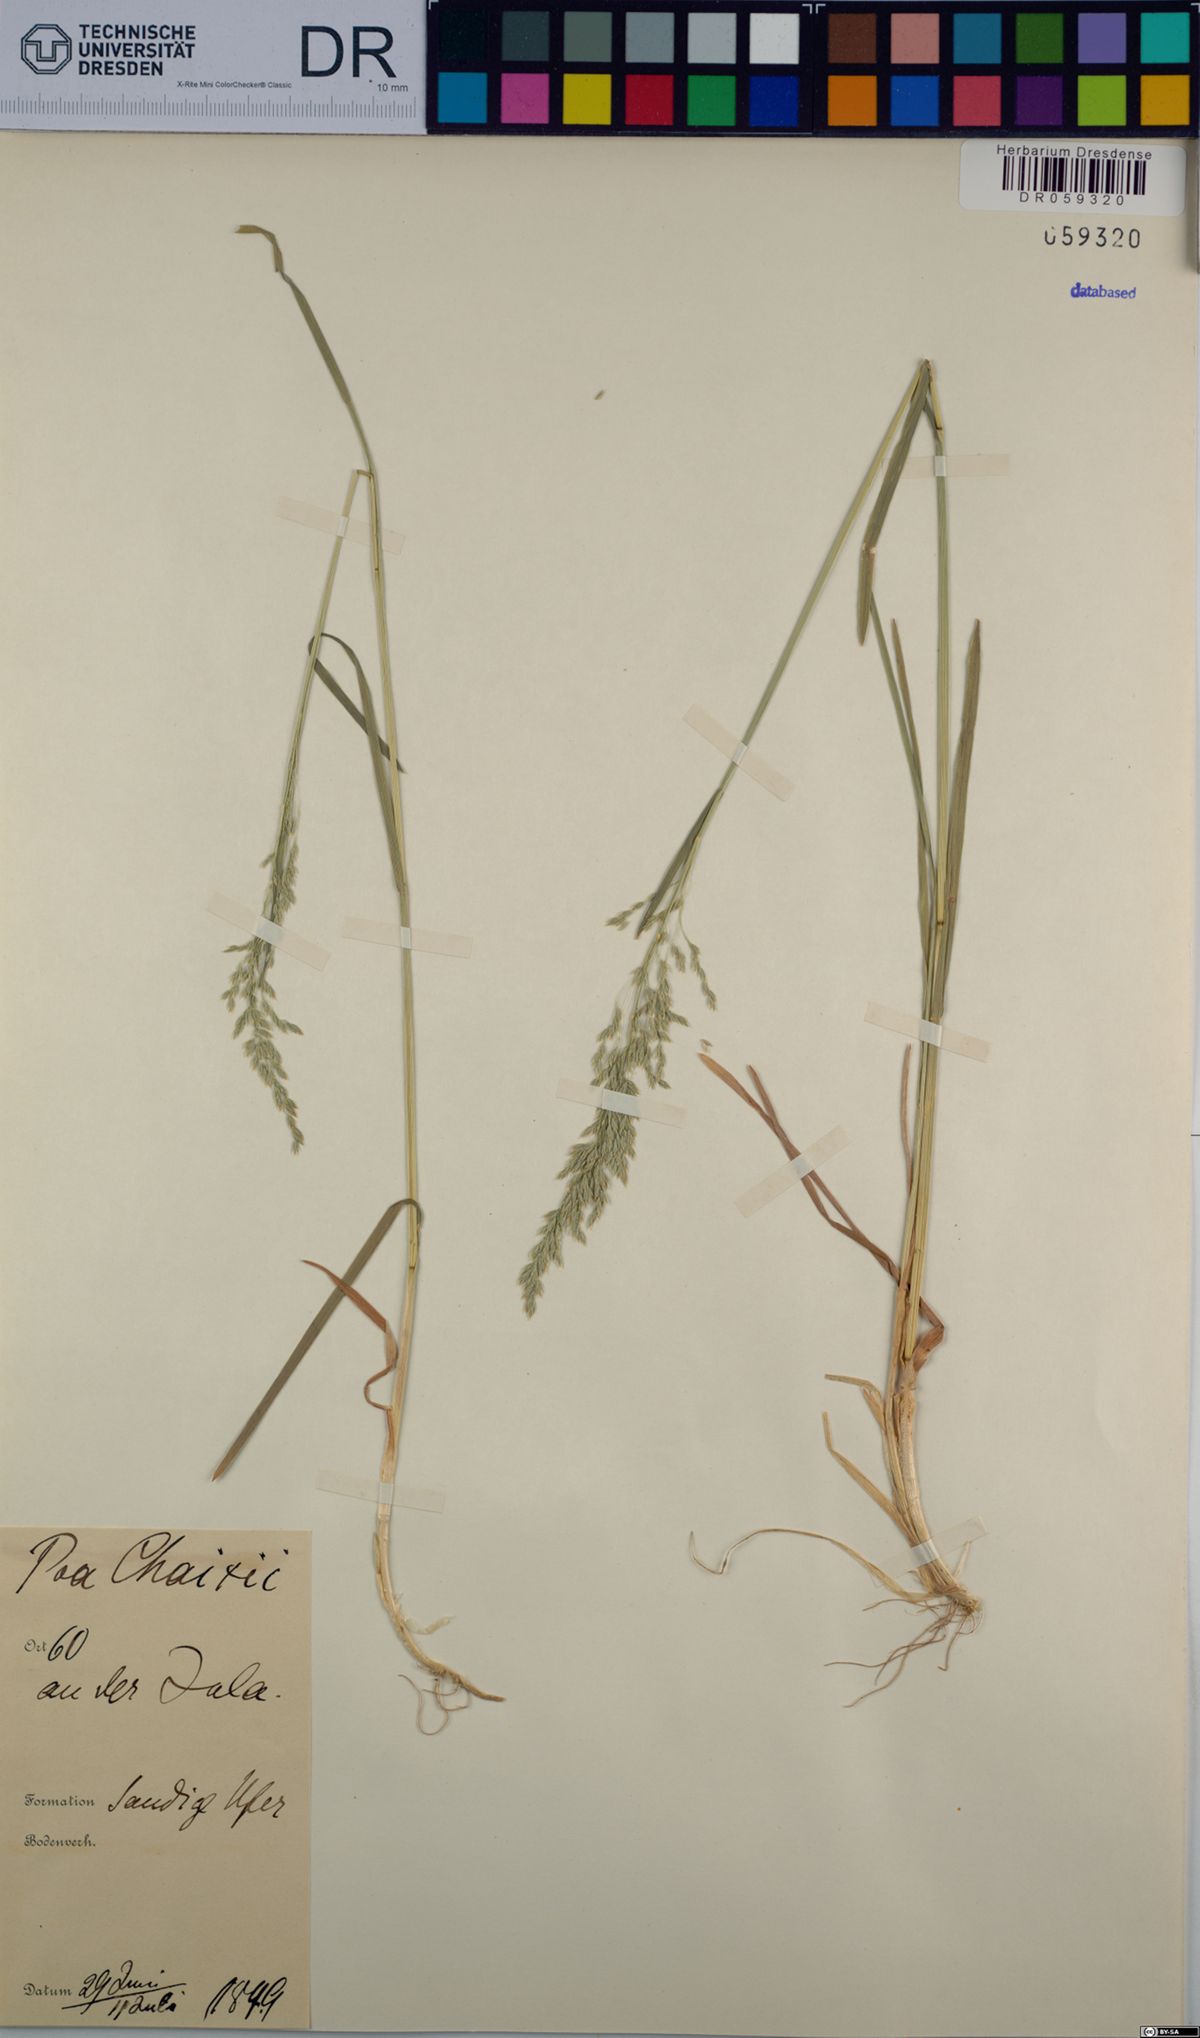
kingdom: Plantae
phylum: Tracheophyta
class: Liliopsida
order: Poales
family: Poaceae
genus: Poa
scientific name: Poa chaixii
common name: Broad-leaved meadow-grass
